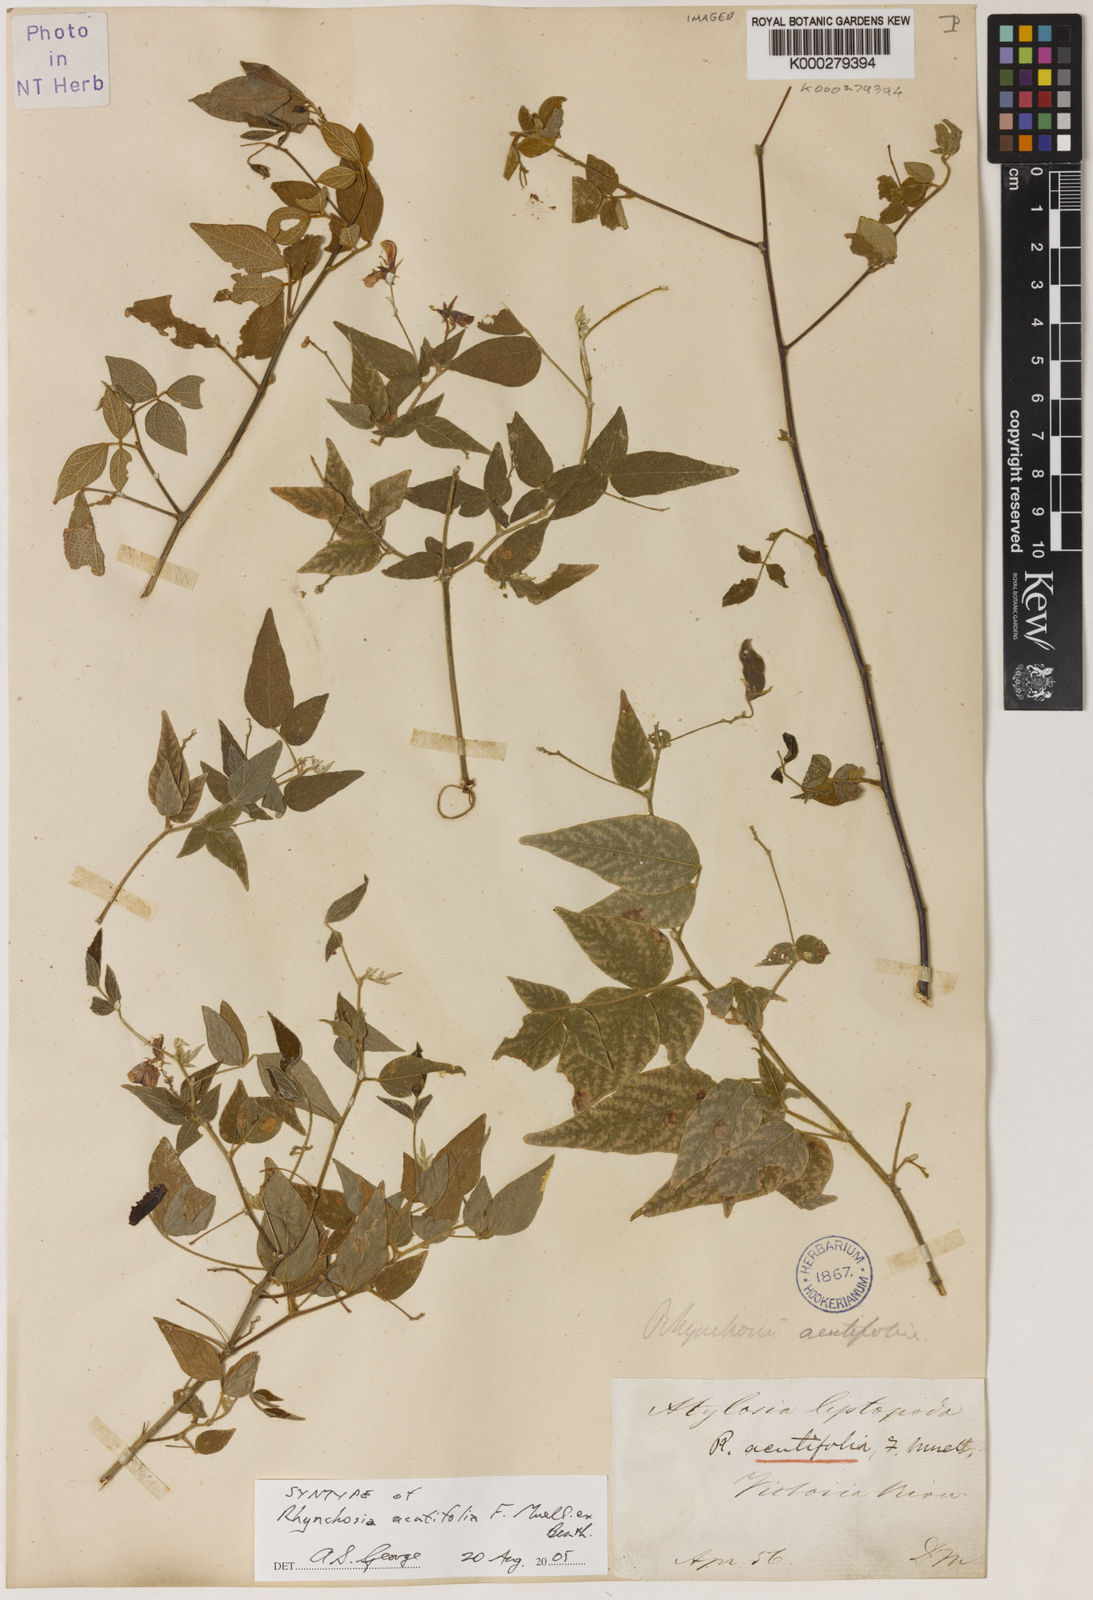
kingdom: Plantae
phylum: Tracheophyta
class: Magnoliopsida
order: Fabales
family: Fabaceae
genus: Cajanus
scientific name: Cajanus acutifolius
